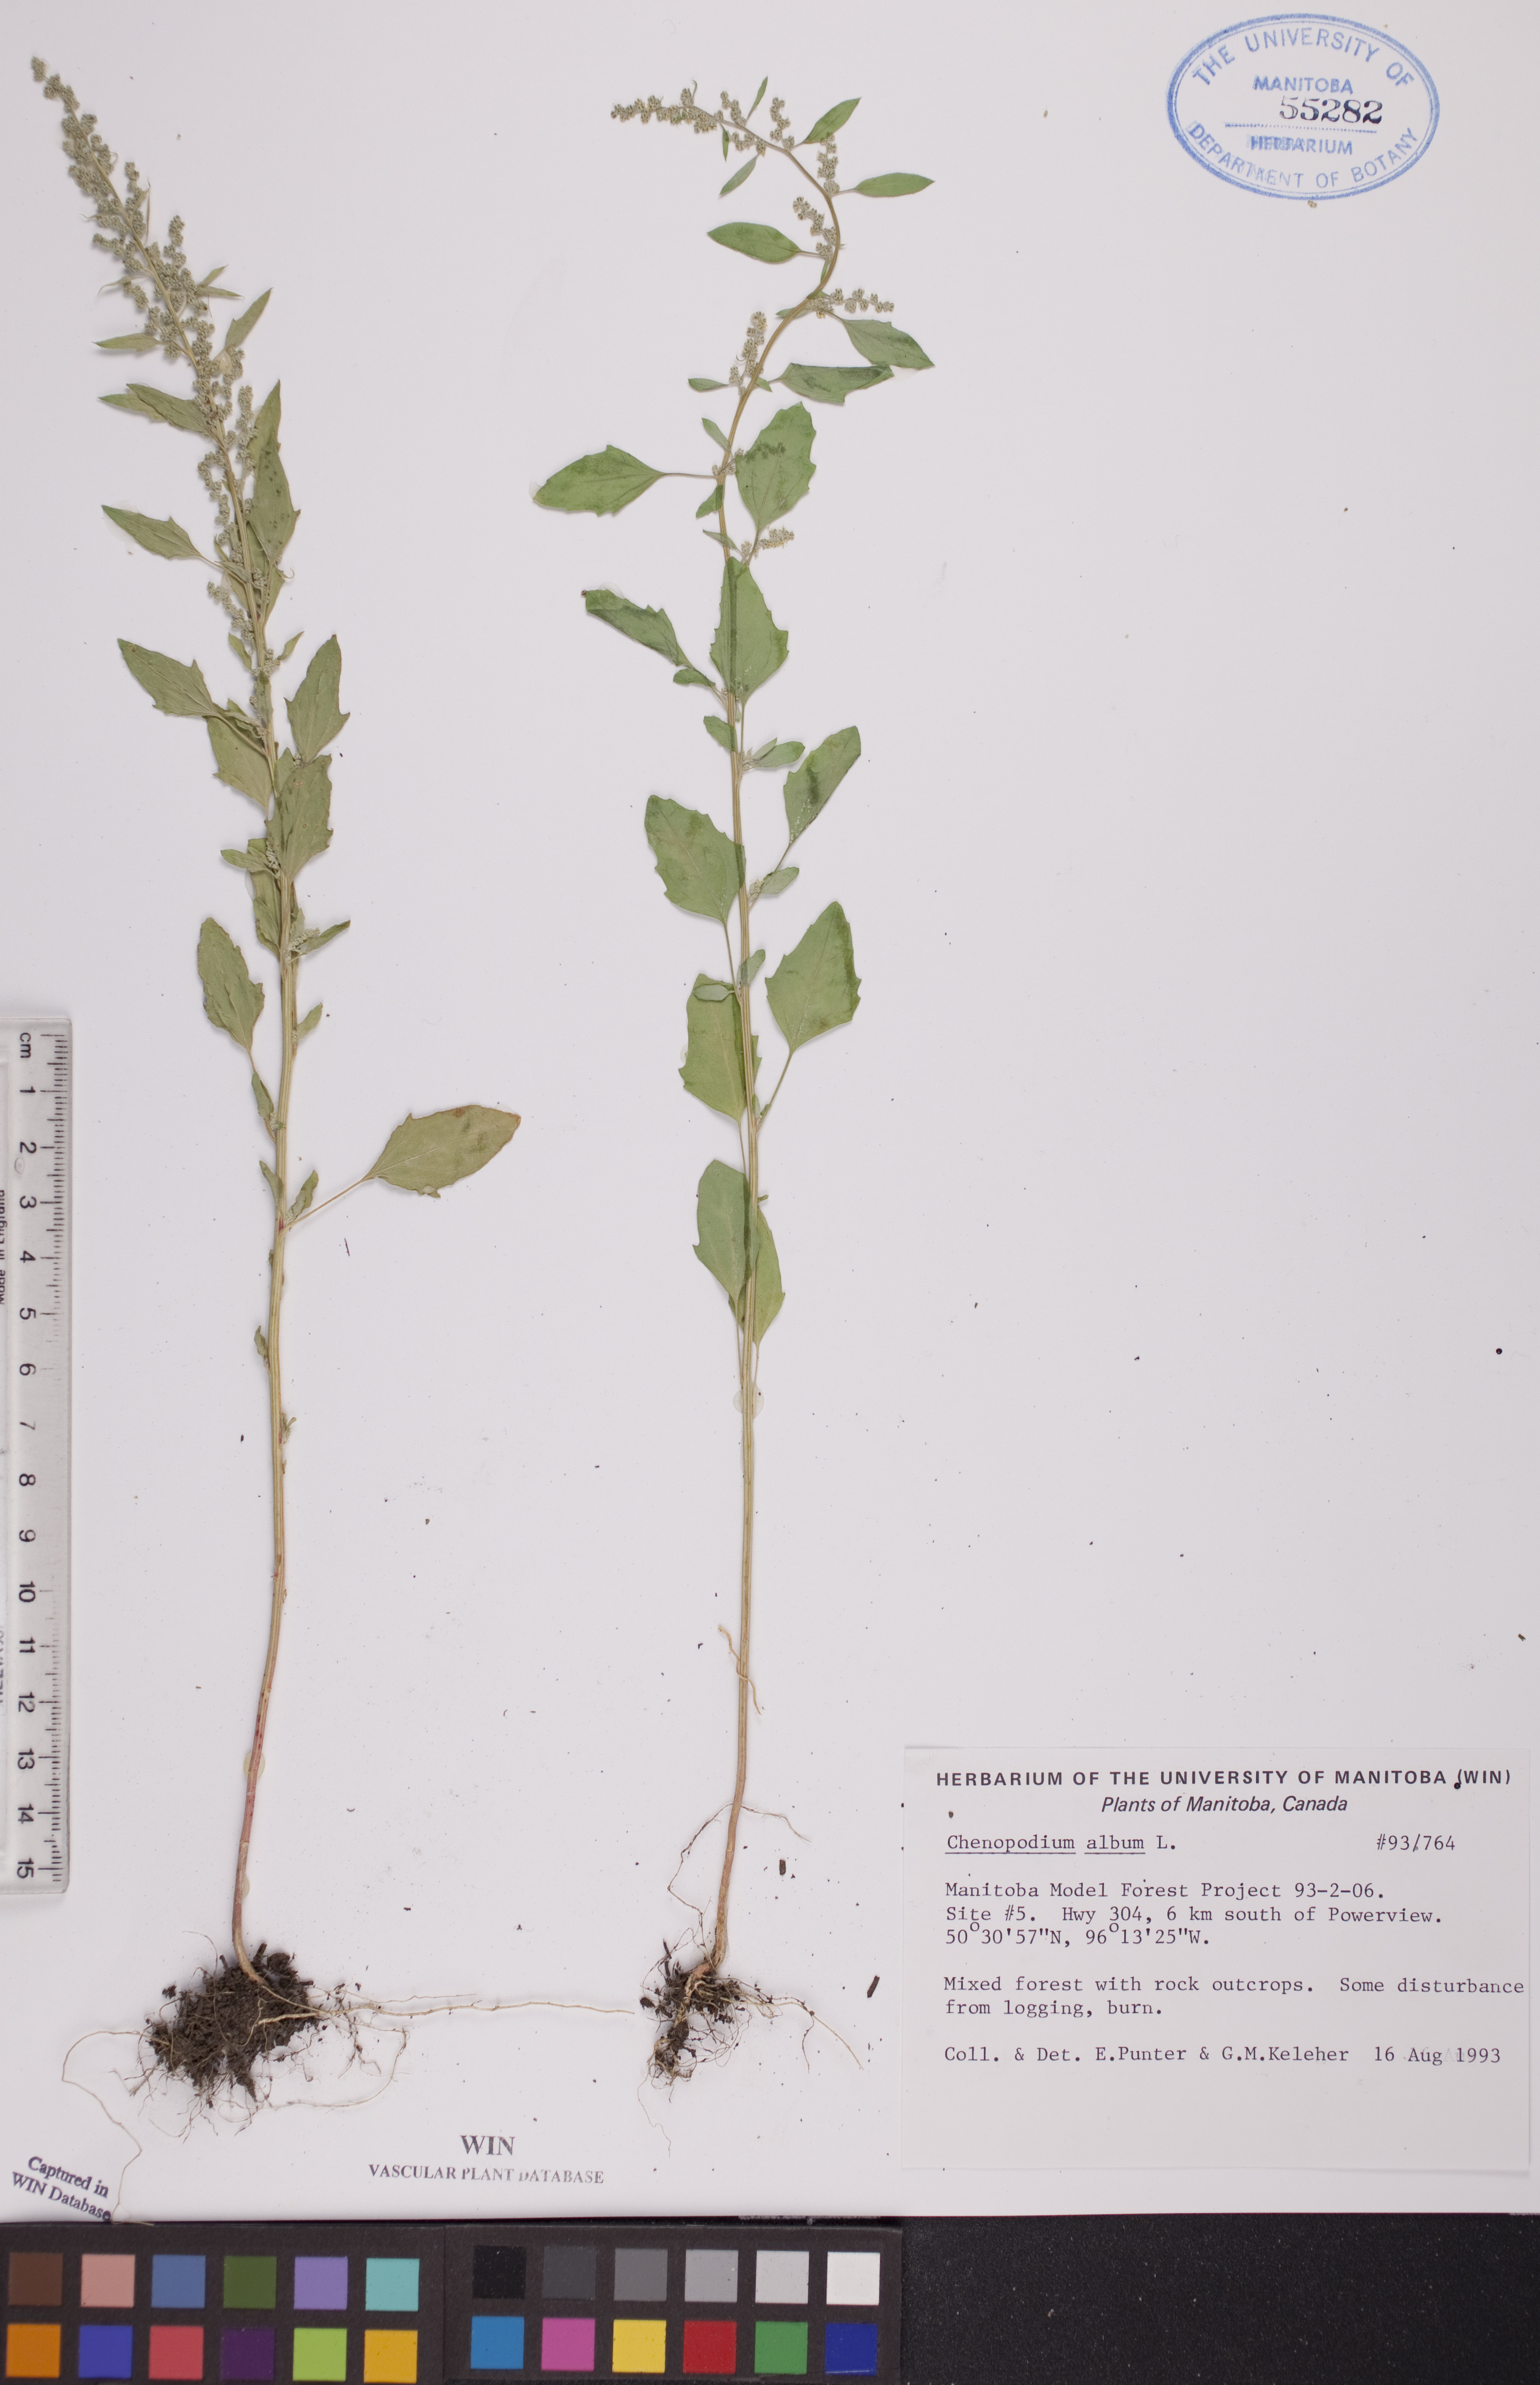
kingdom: Plantae
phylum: Tracheophyta
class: Magnoliopsida
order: Caryophyllales
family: Amaranthaceae
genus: Chenopodium
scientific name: Chenopodium album
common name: Fat-hen
